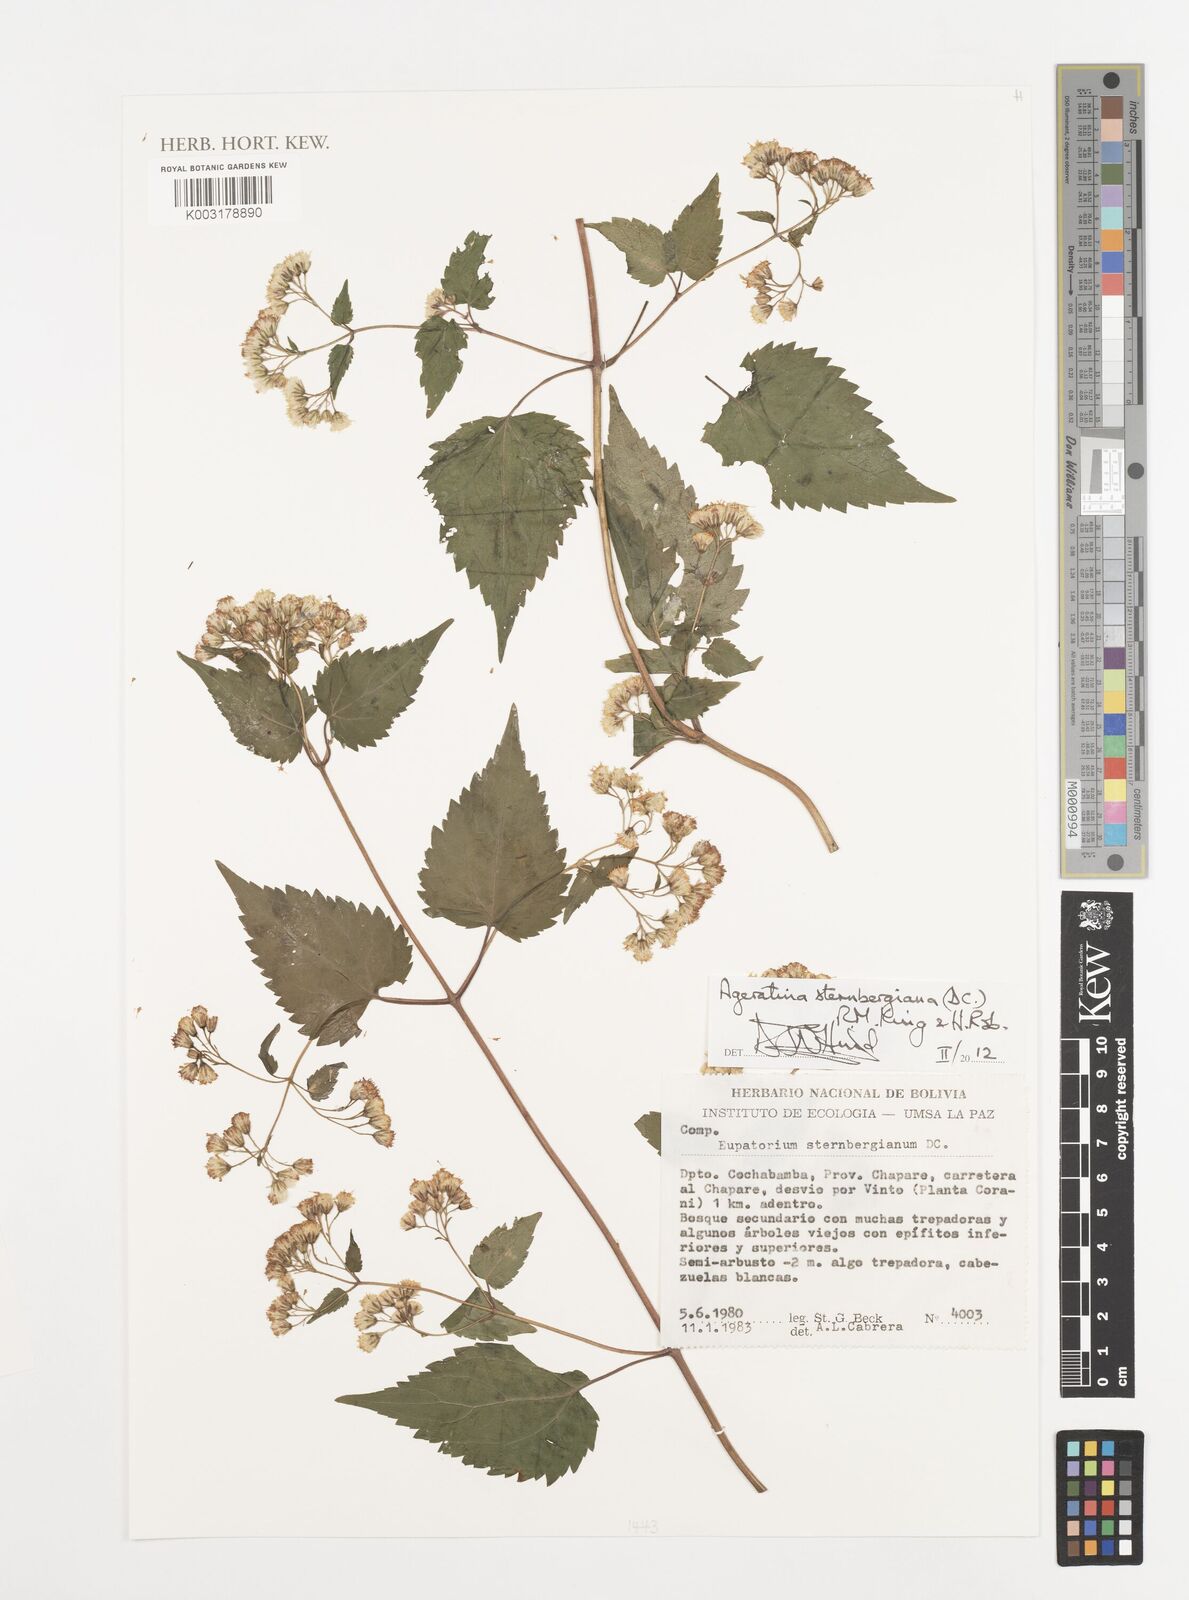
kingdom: Plantae
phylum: Tracheophyta
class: Magnoliopsida
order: Asterales
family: Asteraceae
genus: Ageratina
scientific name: Ageratina sternbergiana
